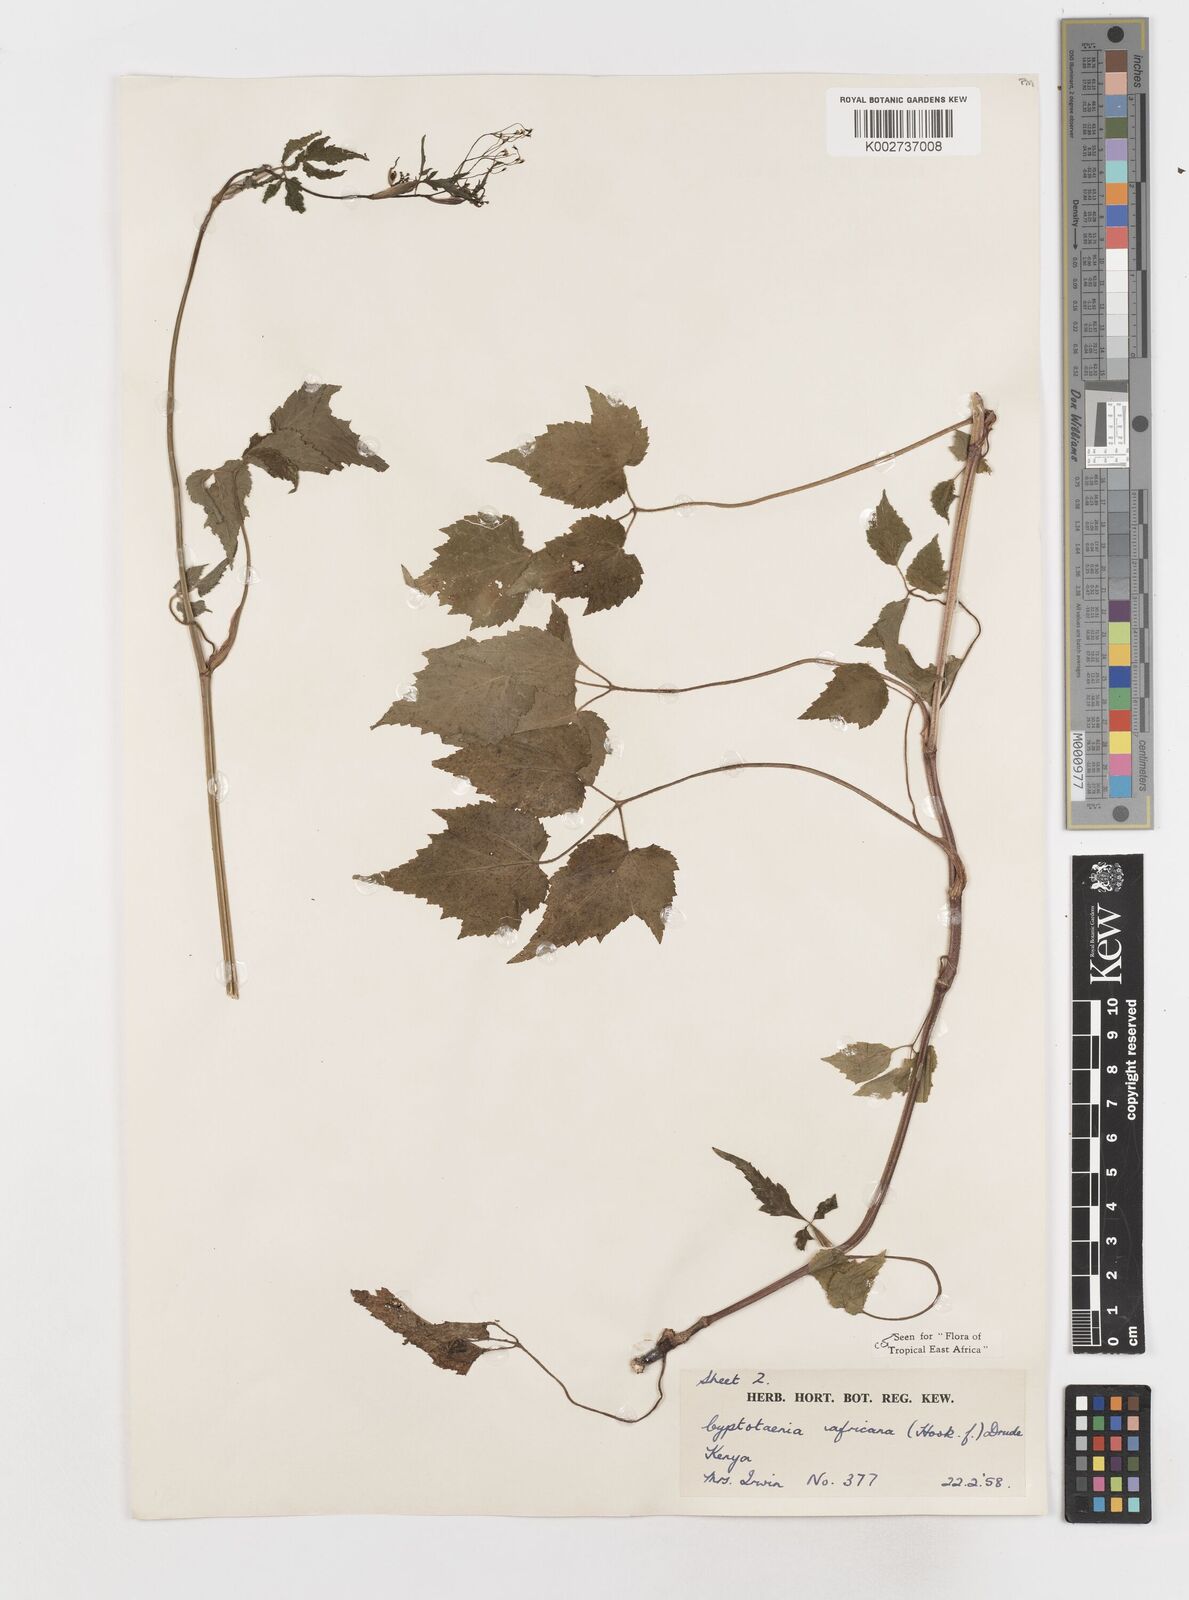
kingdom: Plantae
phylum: Tracheophyta
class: Magnoliopsida
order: Apiales
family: Apiaceae
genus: Cryptotaenia
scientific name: Cryptotaenia africana
